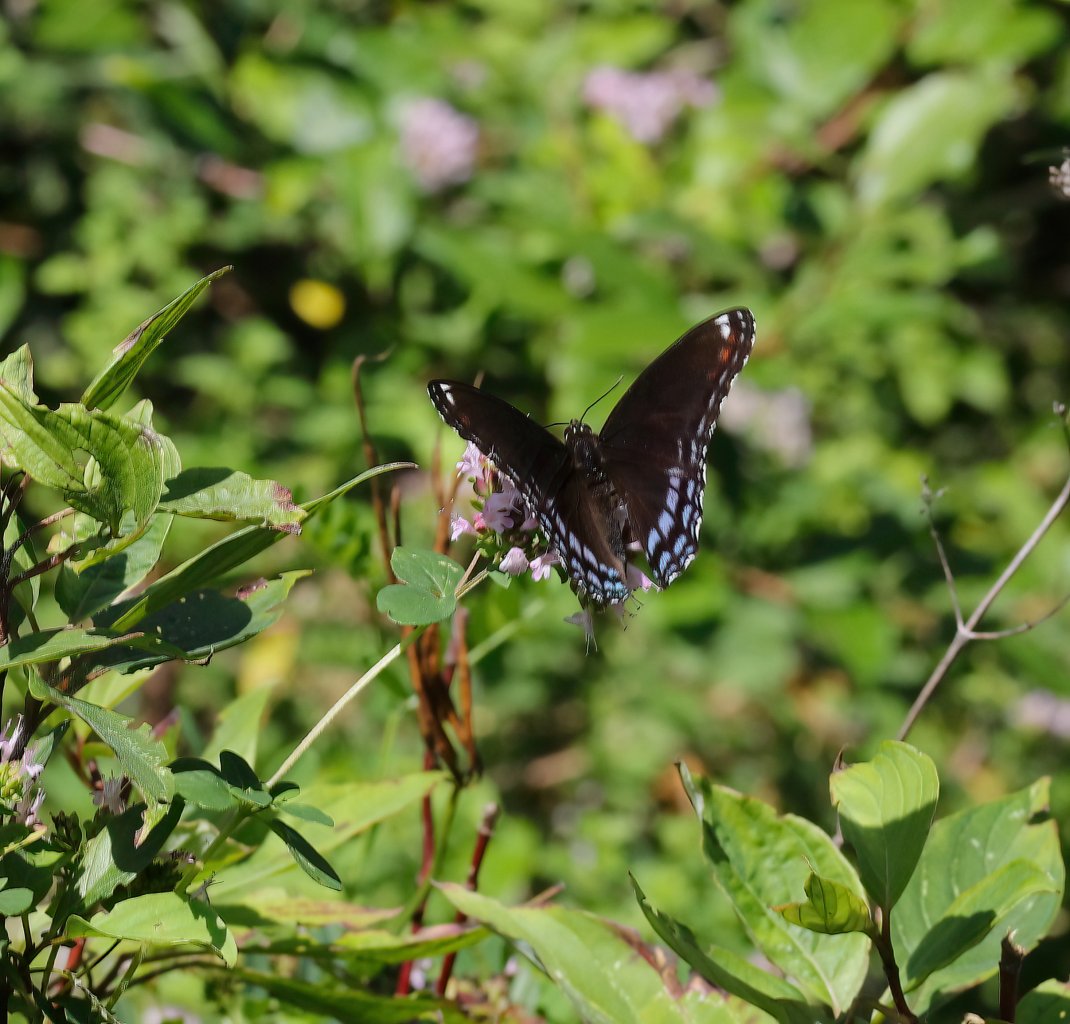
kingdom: Animalia
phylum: Arthropoda
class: Insecta
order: Lepidoptera
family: Nymphalidae
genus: Limenitis
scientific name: Limenitis arthemis
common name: Red-spotted Admiral
